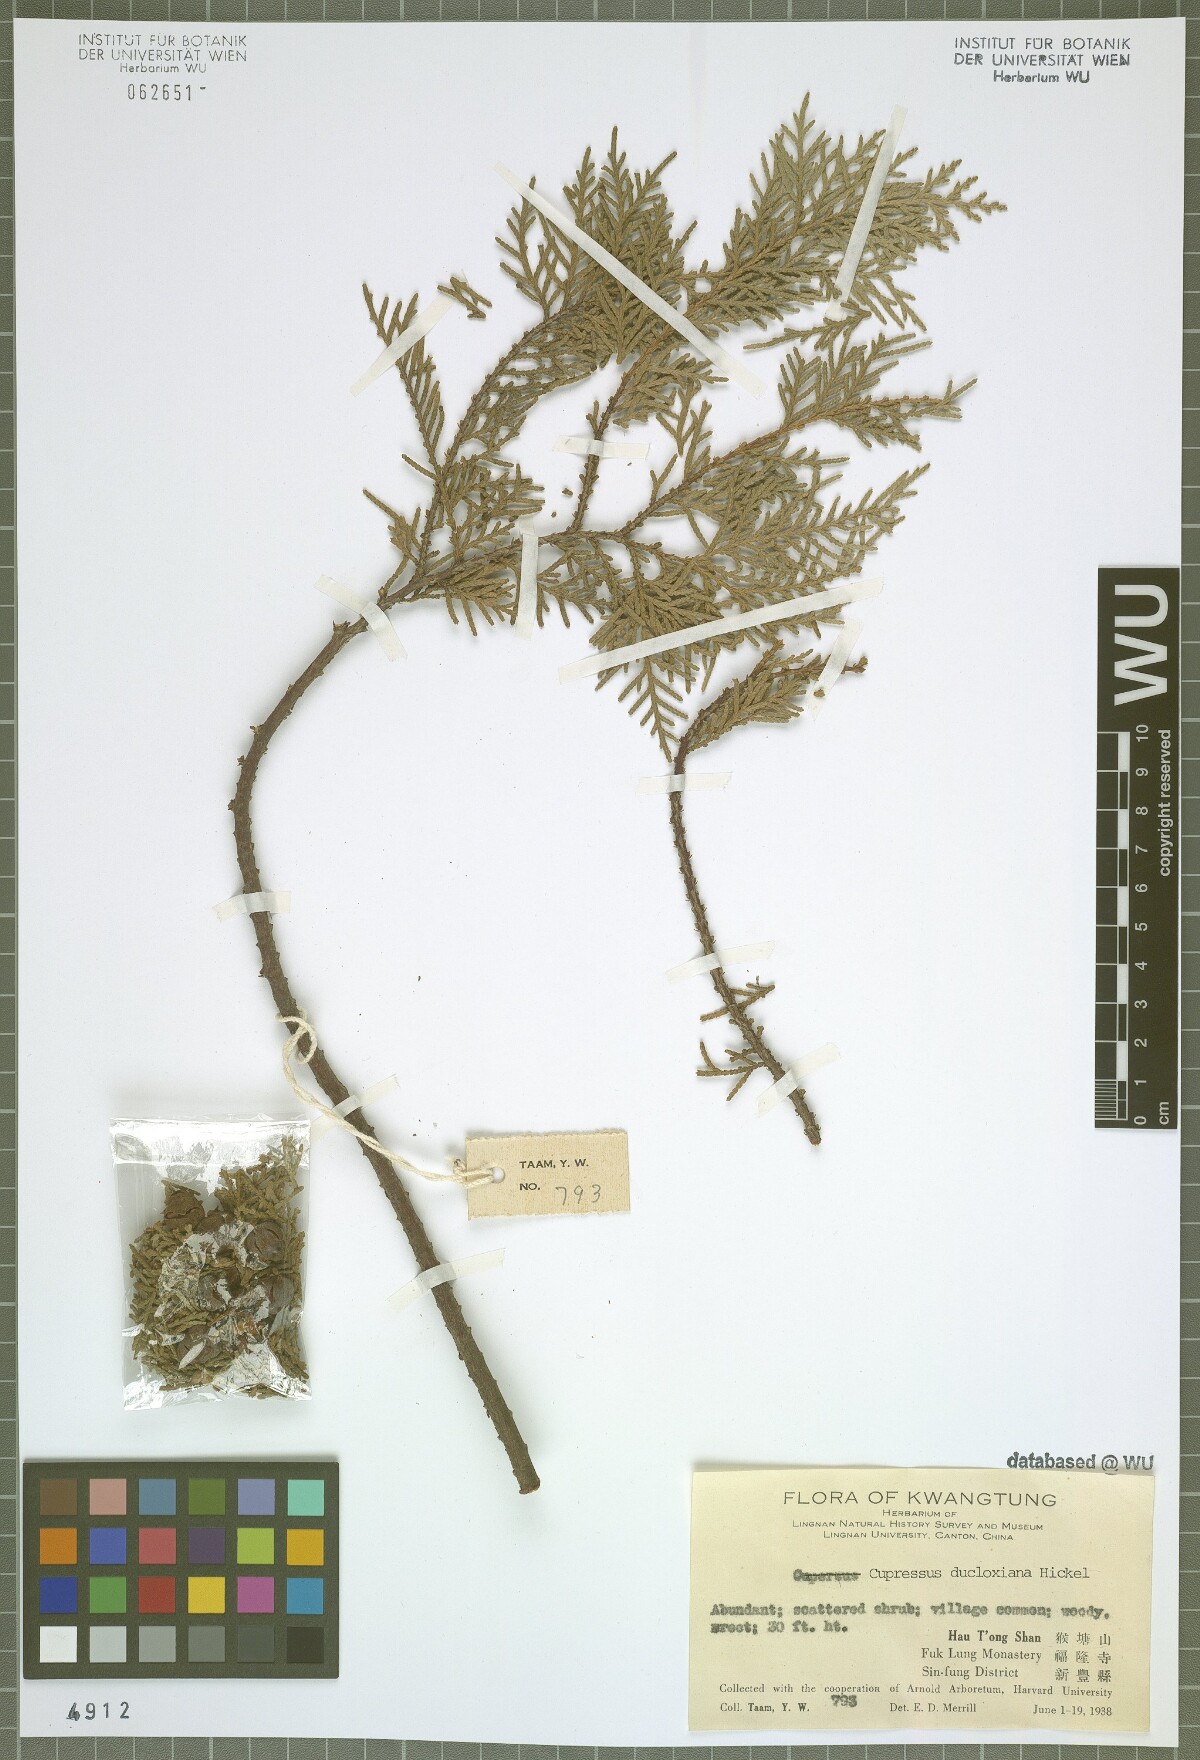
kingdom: Plantae
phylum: Tracheophyta
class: Pinopsida
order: Pinales
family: Cupressaceae
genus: Cupressus
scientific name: Cupressus duclouxiana
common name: Chinese cypress
